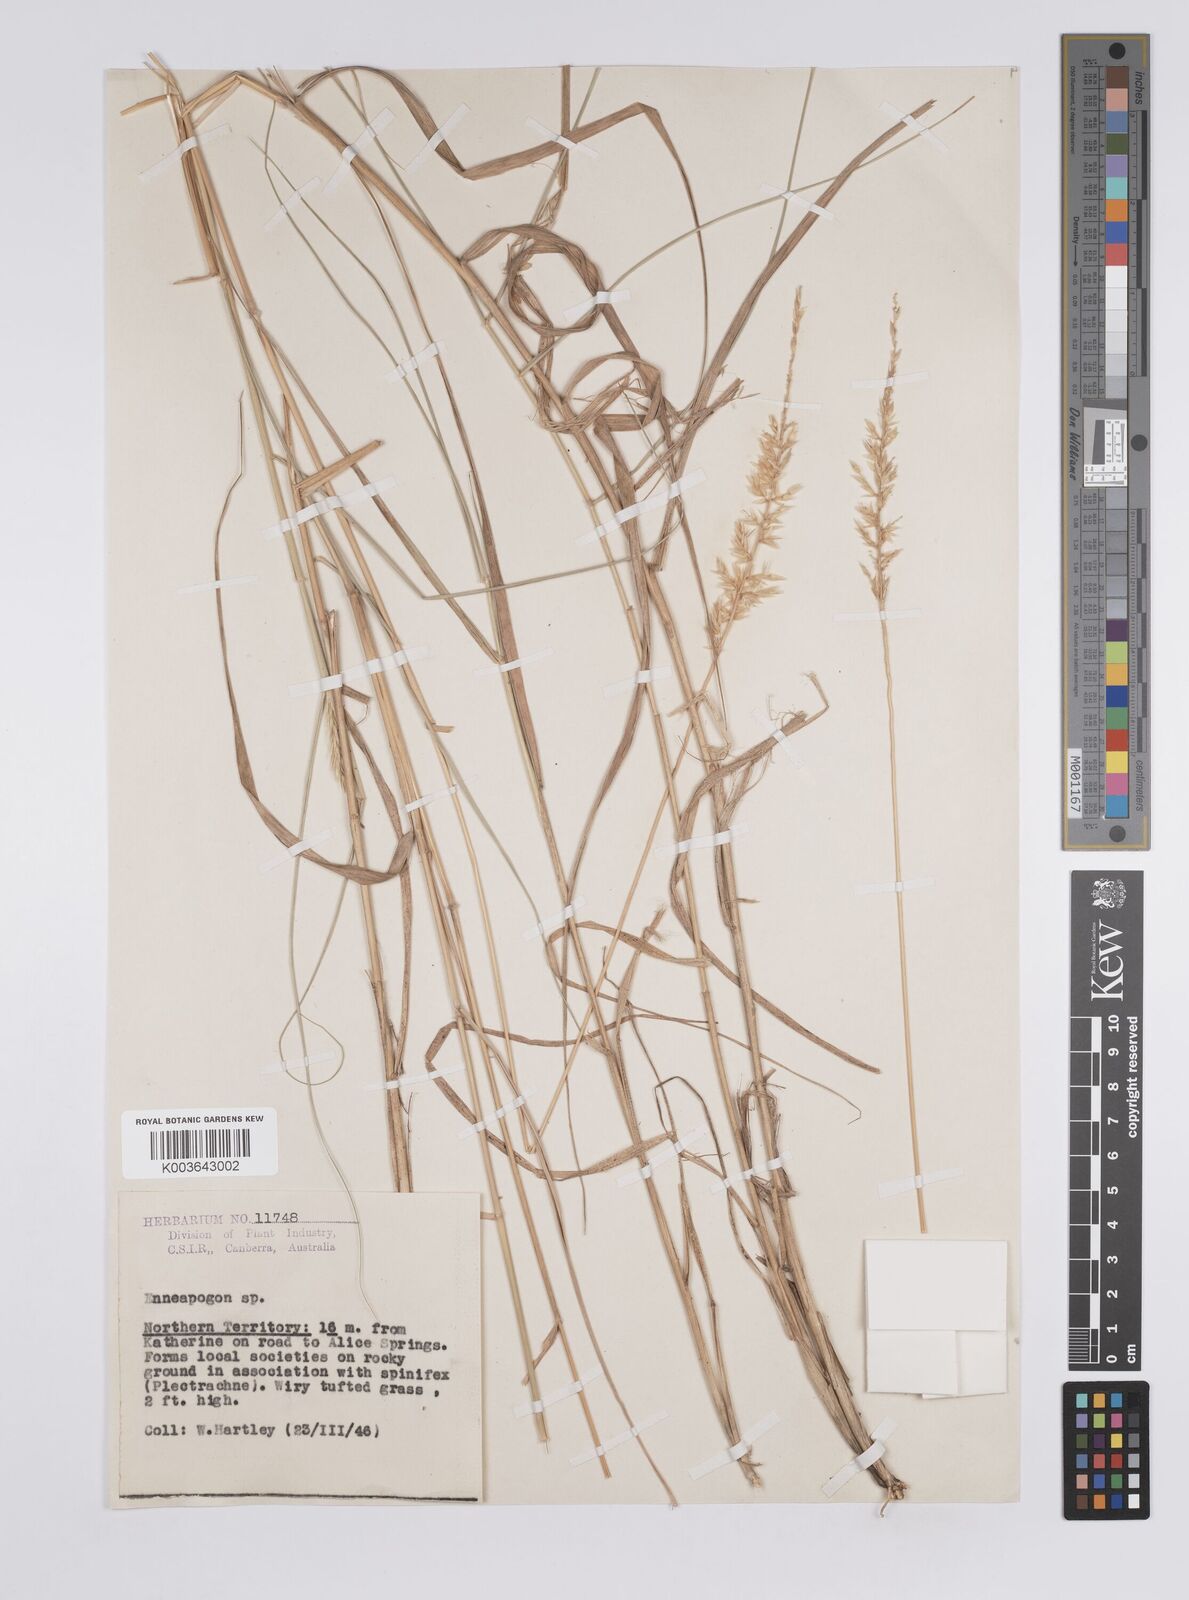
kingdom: Plantae
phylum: Tracheophyta
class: Liliopsida
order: Poales
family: Poaceae
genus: Enneapogon
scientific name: Enneapogon purpurascens
